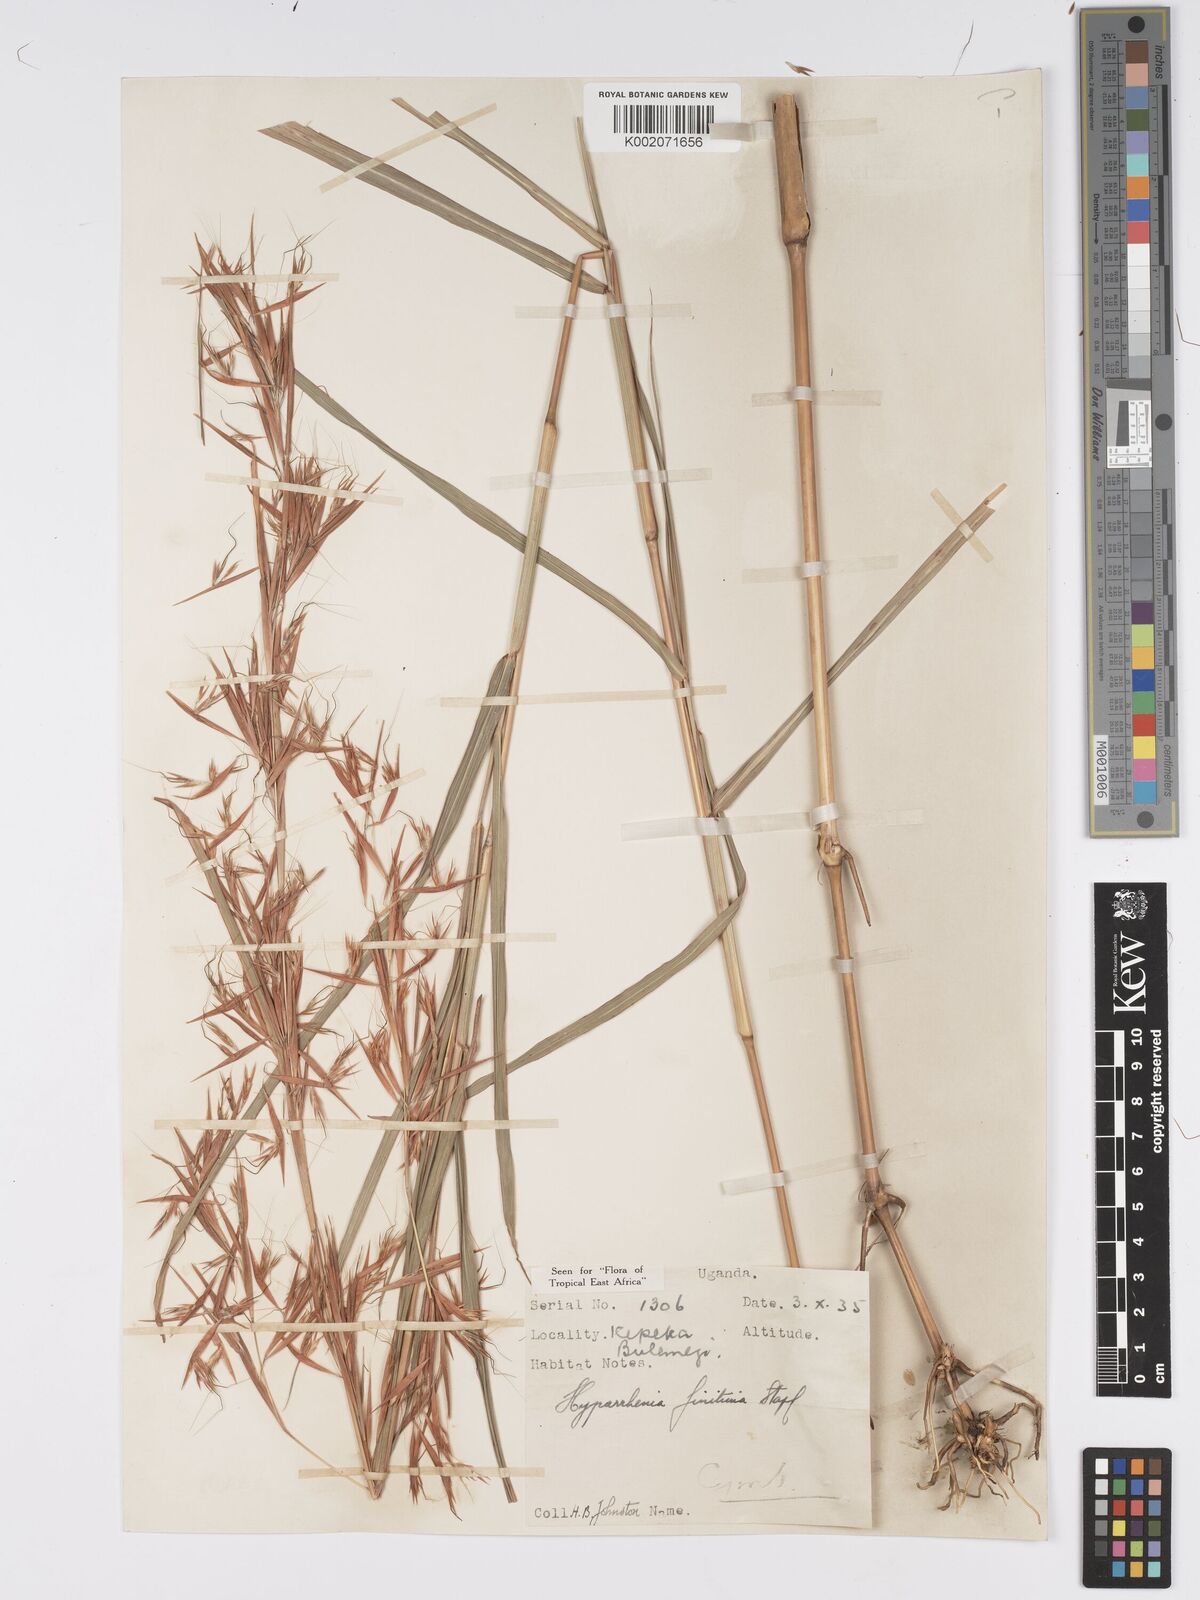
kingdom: Plantae
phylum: Tracheophyta
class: Liliopsida
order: Poales
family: Poaceae
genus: Hyparrhenia
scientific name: Hyparrhenia finitima
